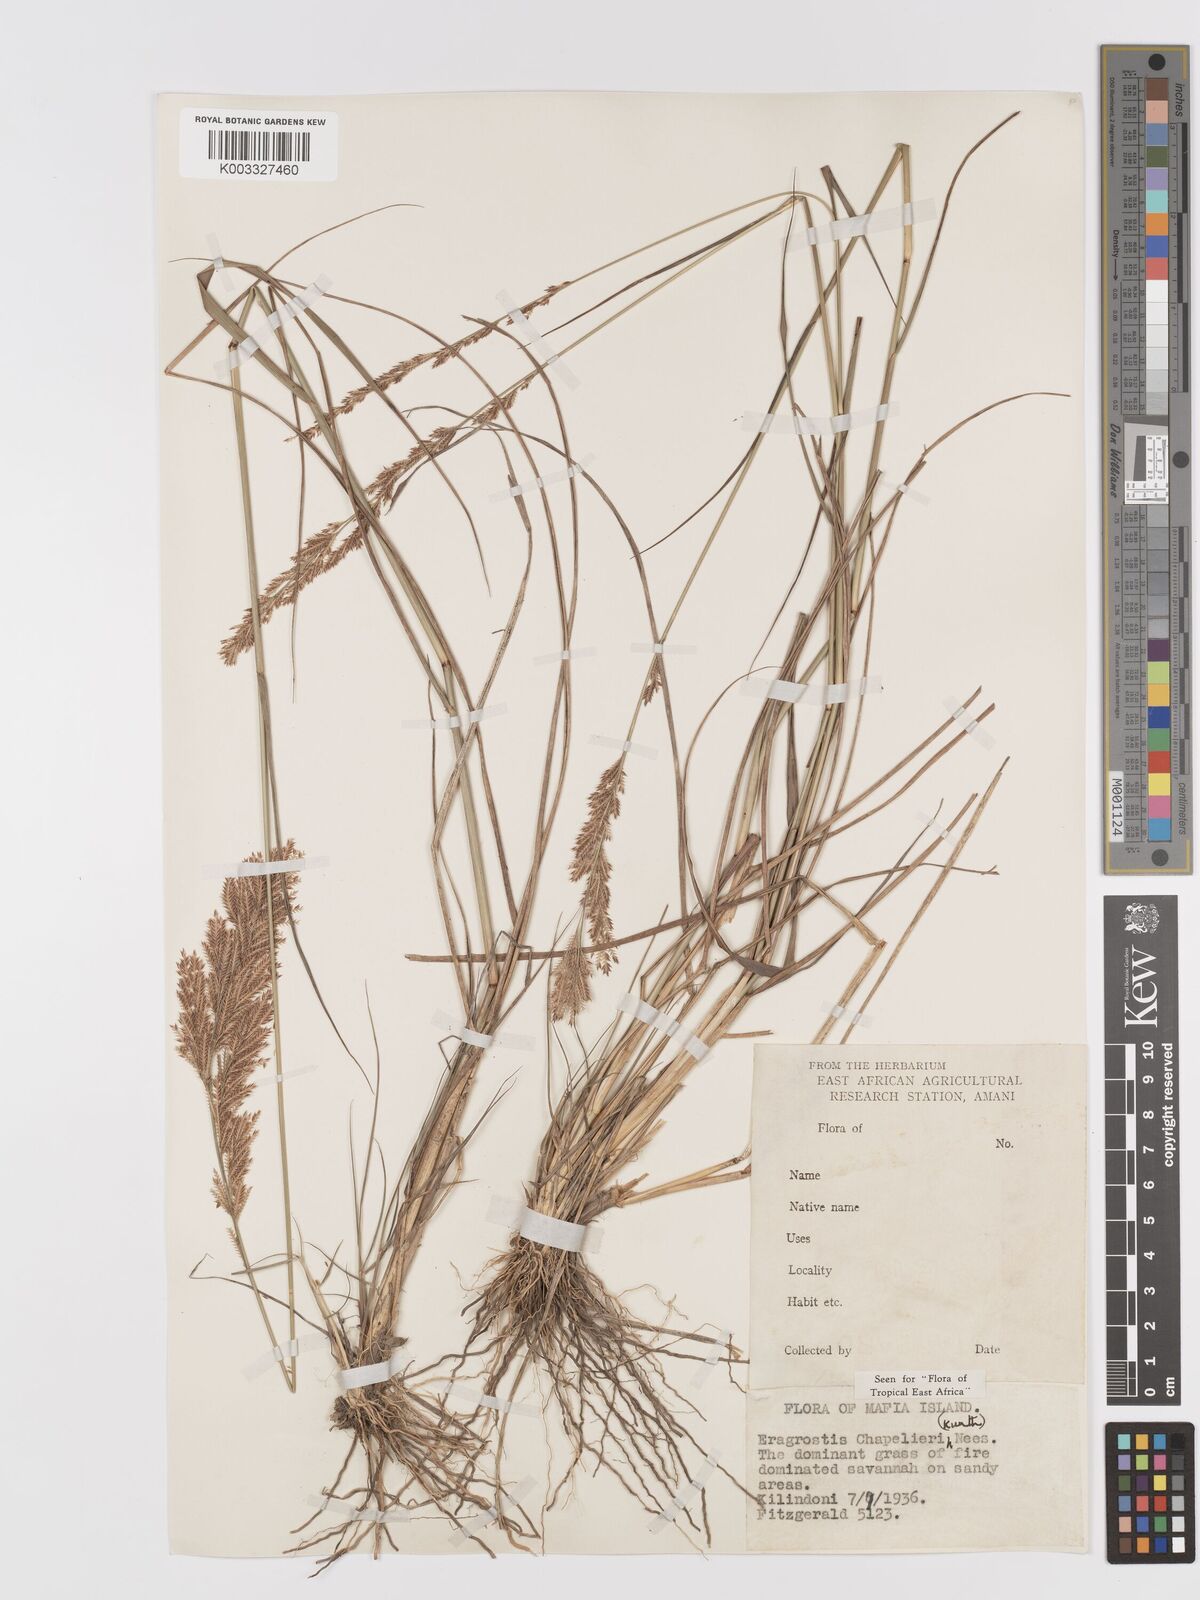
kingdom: Plantae
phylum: Tracheophyta
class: Liliopsida
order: Poales
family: Poaceae
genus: Eragrostis
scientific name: Eragrostis chapelieri
